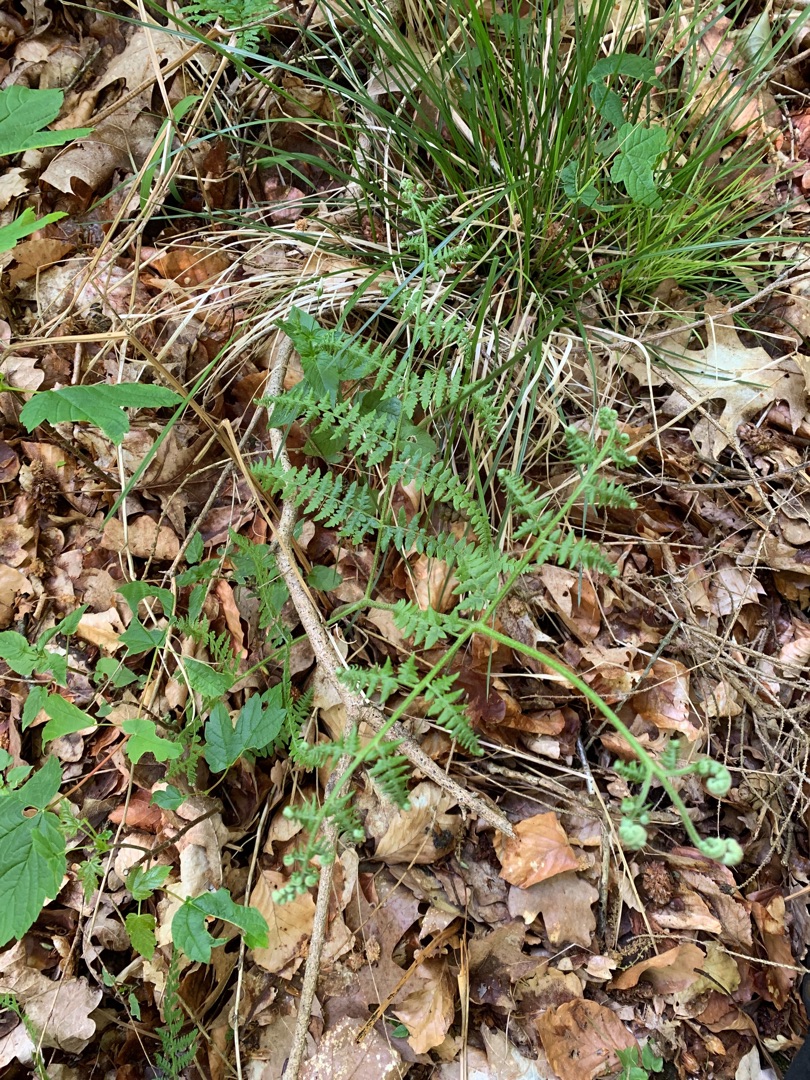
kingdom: Plantae
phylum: Tracheophyta
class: Polypodiopsida
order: Polypodiales
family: Dennstaedtiaceae
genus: Pteridium
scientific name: Pteridium aquilinum
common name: Ørnebregne
